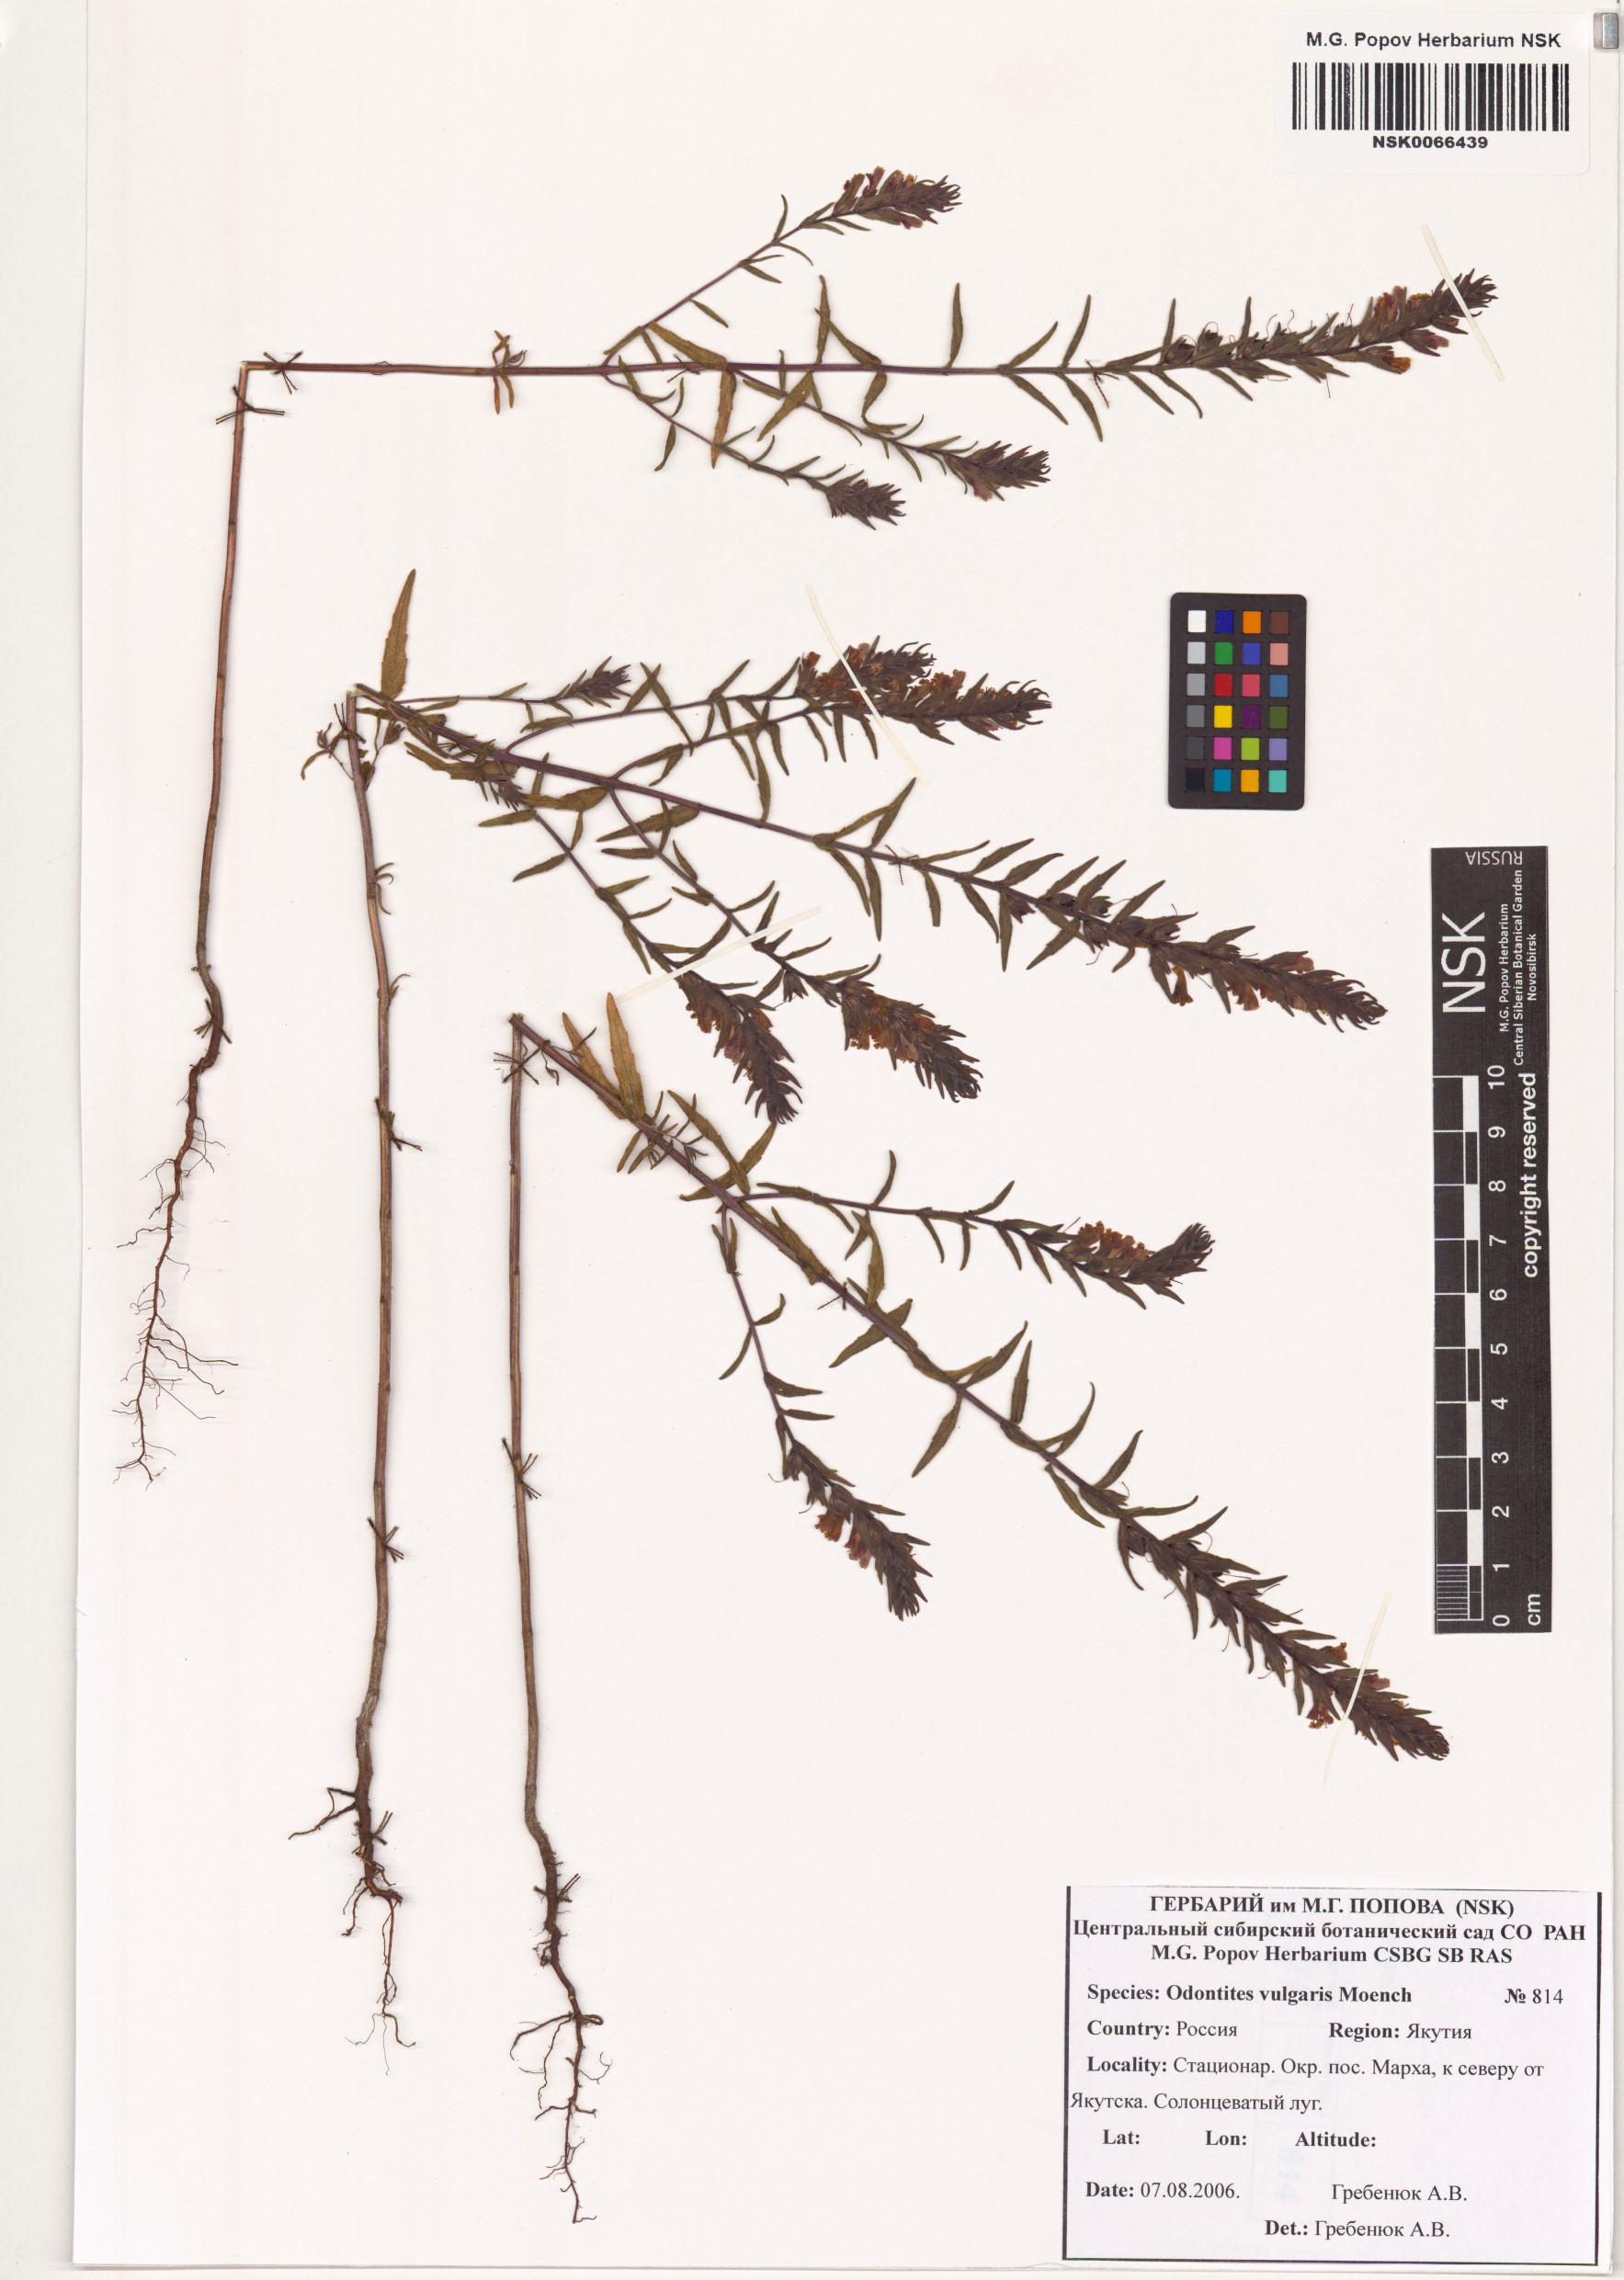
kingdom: Plantae
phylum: Tracheophyta
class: Magnoliopsida
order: Lamiales
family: Orobanchaceae
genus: Odontites
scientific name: Odontites vulgaris
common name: Broomrape
